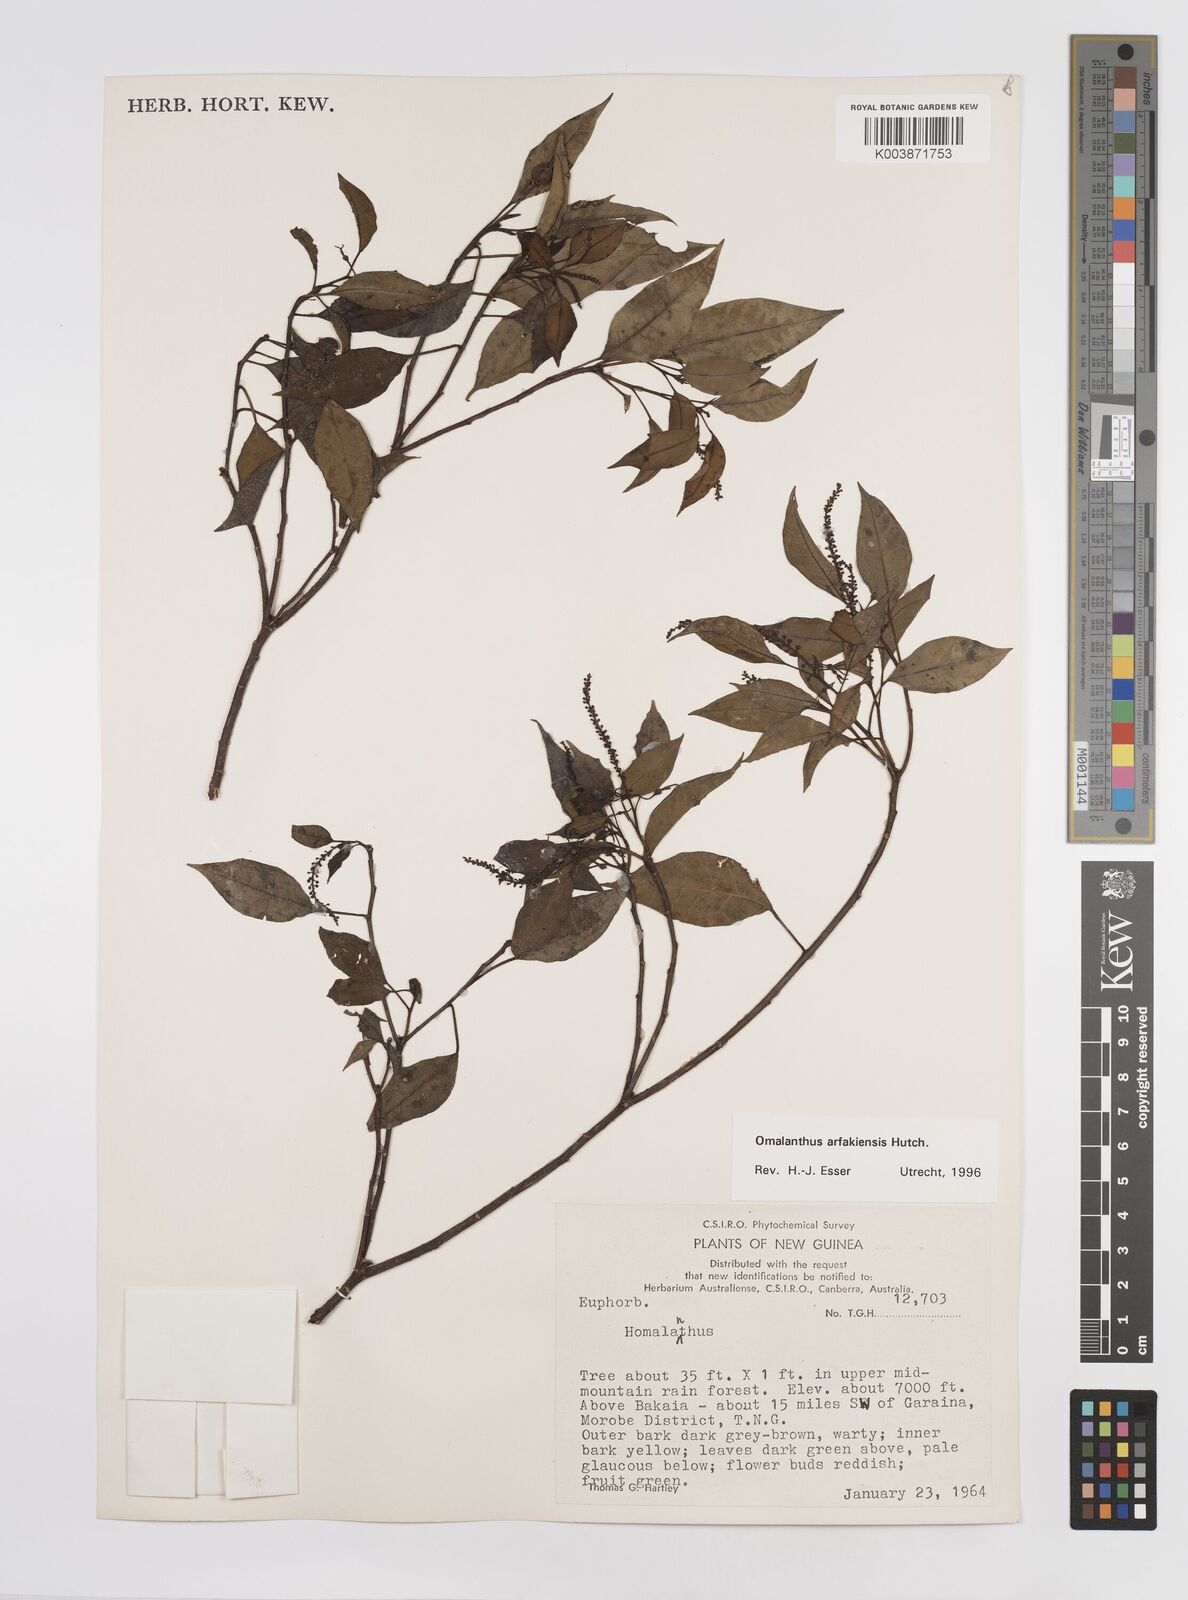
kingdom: Plantae
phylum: Tracheophyta
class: Magnoliopsida
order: Malpighiales
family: Euphorbiaceae
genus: Homalanthus
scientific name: Homalanthus arfakiensis
